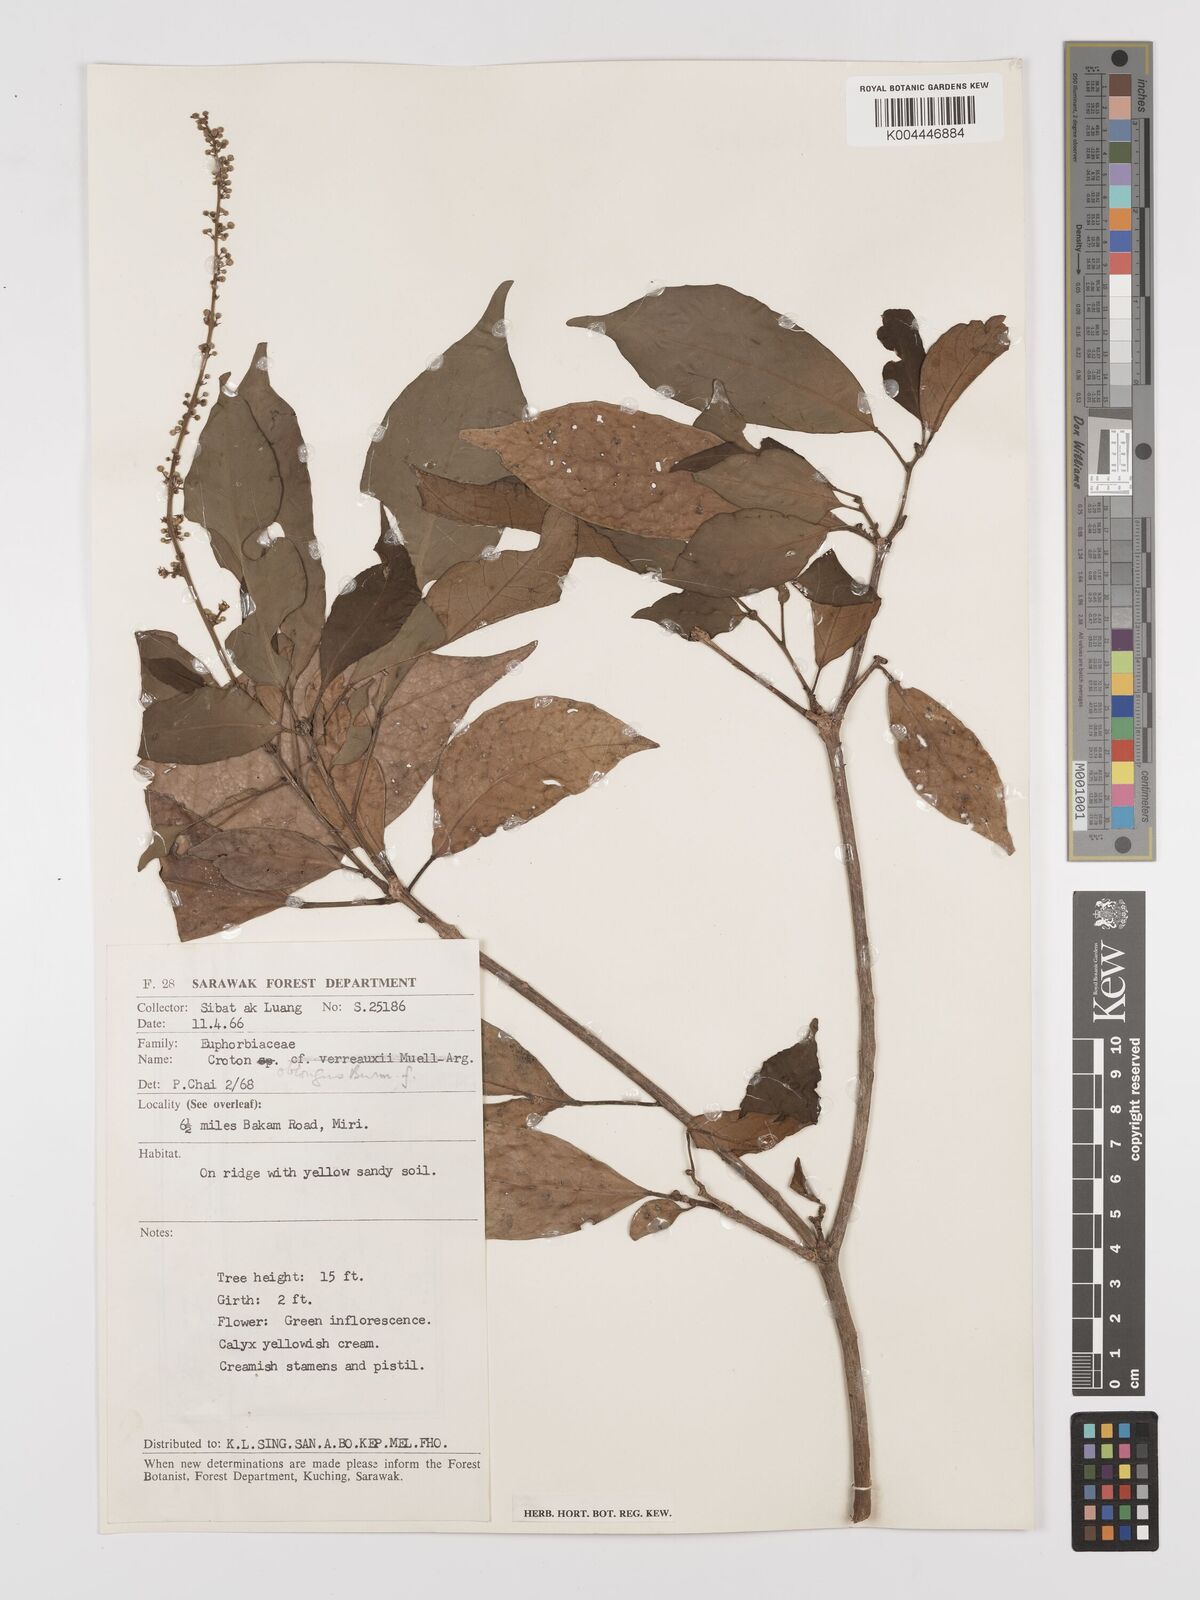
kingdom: Plantae
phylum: Tracheophyta
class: Magnoliopsida
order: Malpighiales
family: Euphorbiaceae
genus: Croton
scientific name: Croton oblongus
